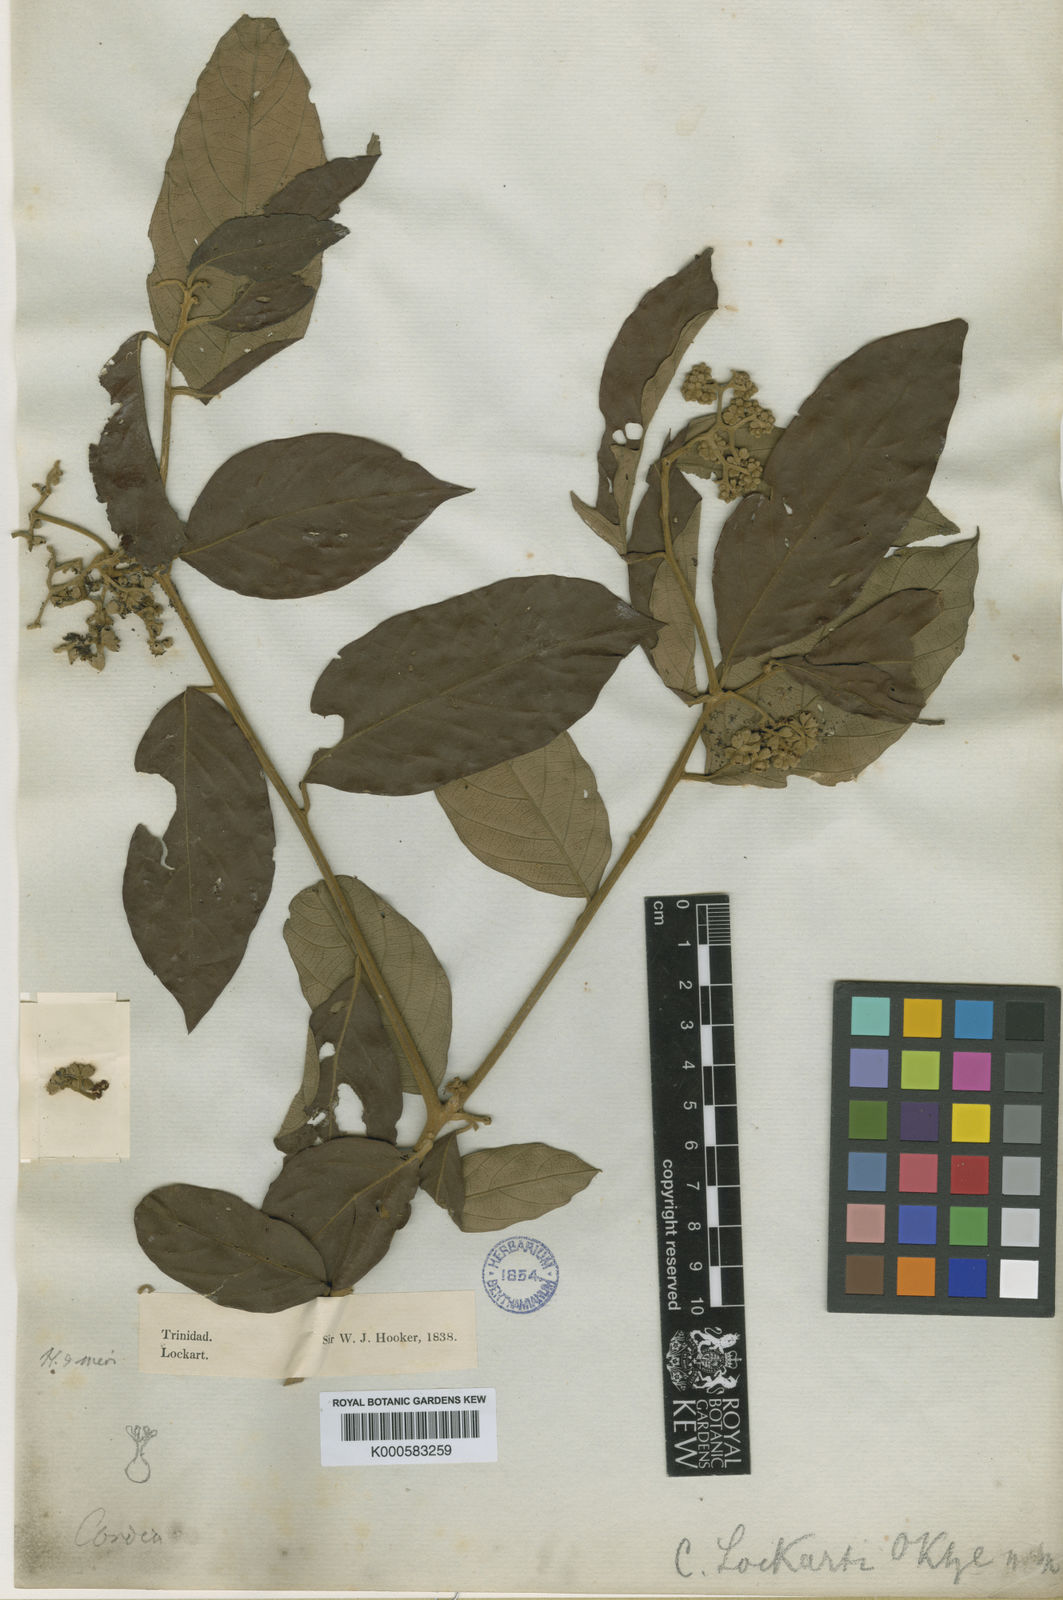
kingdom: Plantae
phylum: Tracheophyta
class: Magnoliopsida
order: Boraginales
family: Cordiaceae
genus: Cordia
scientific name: Cordia bicolor
